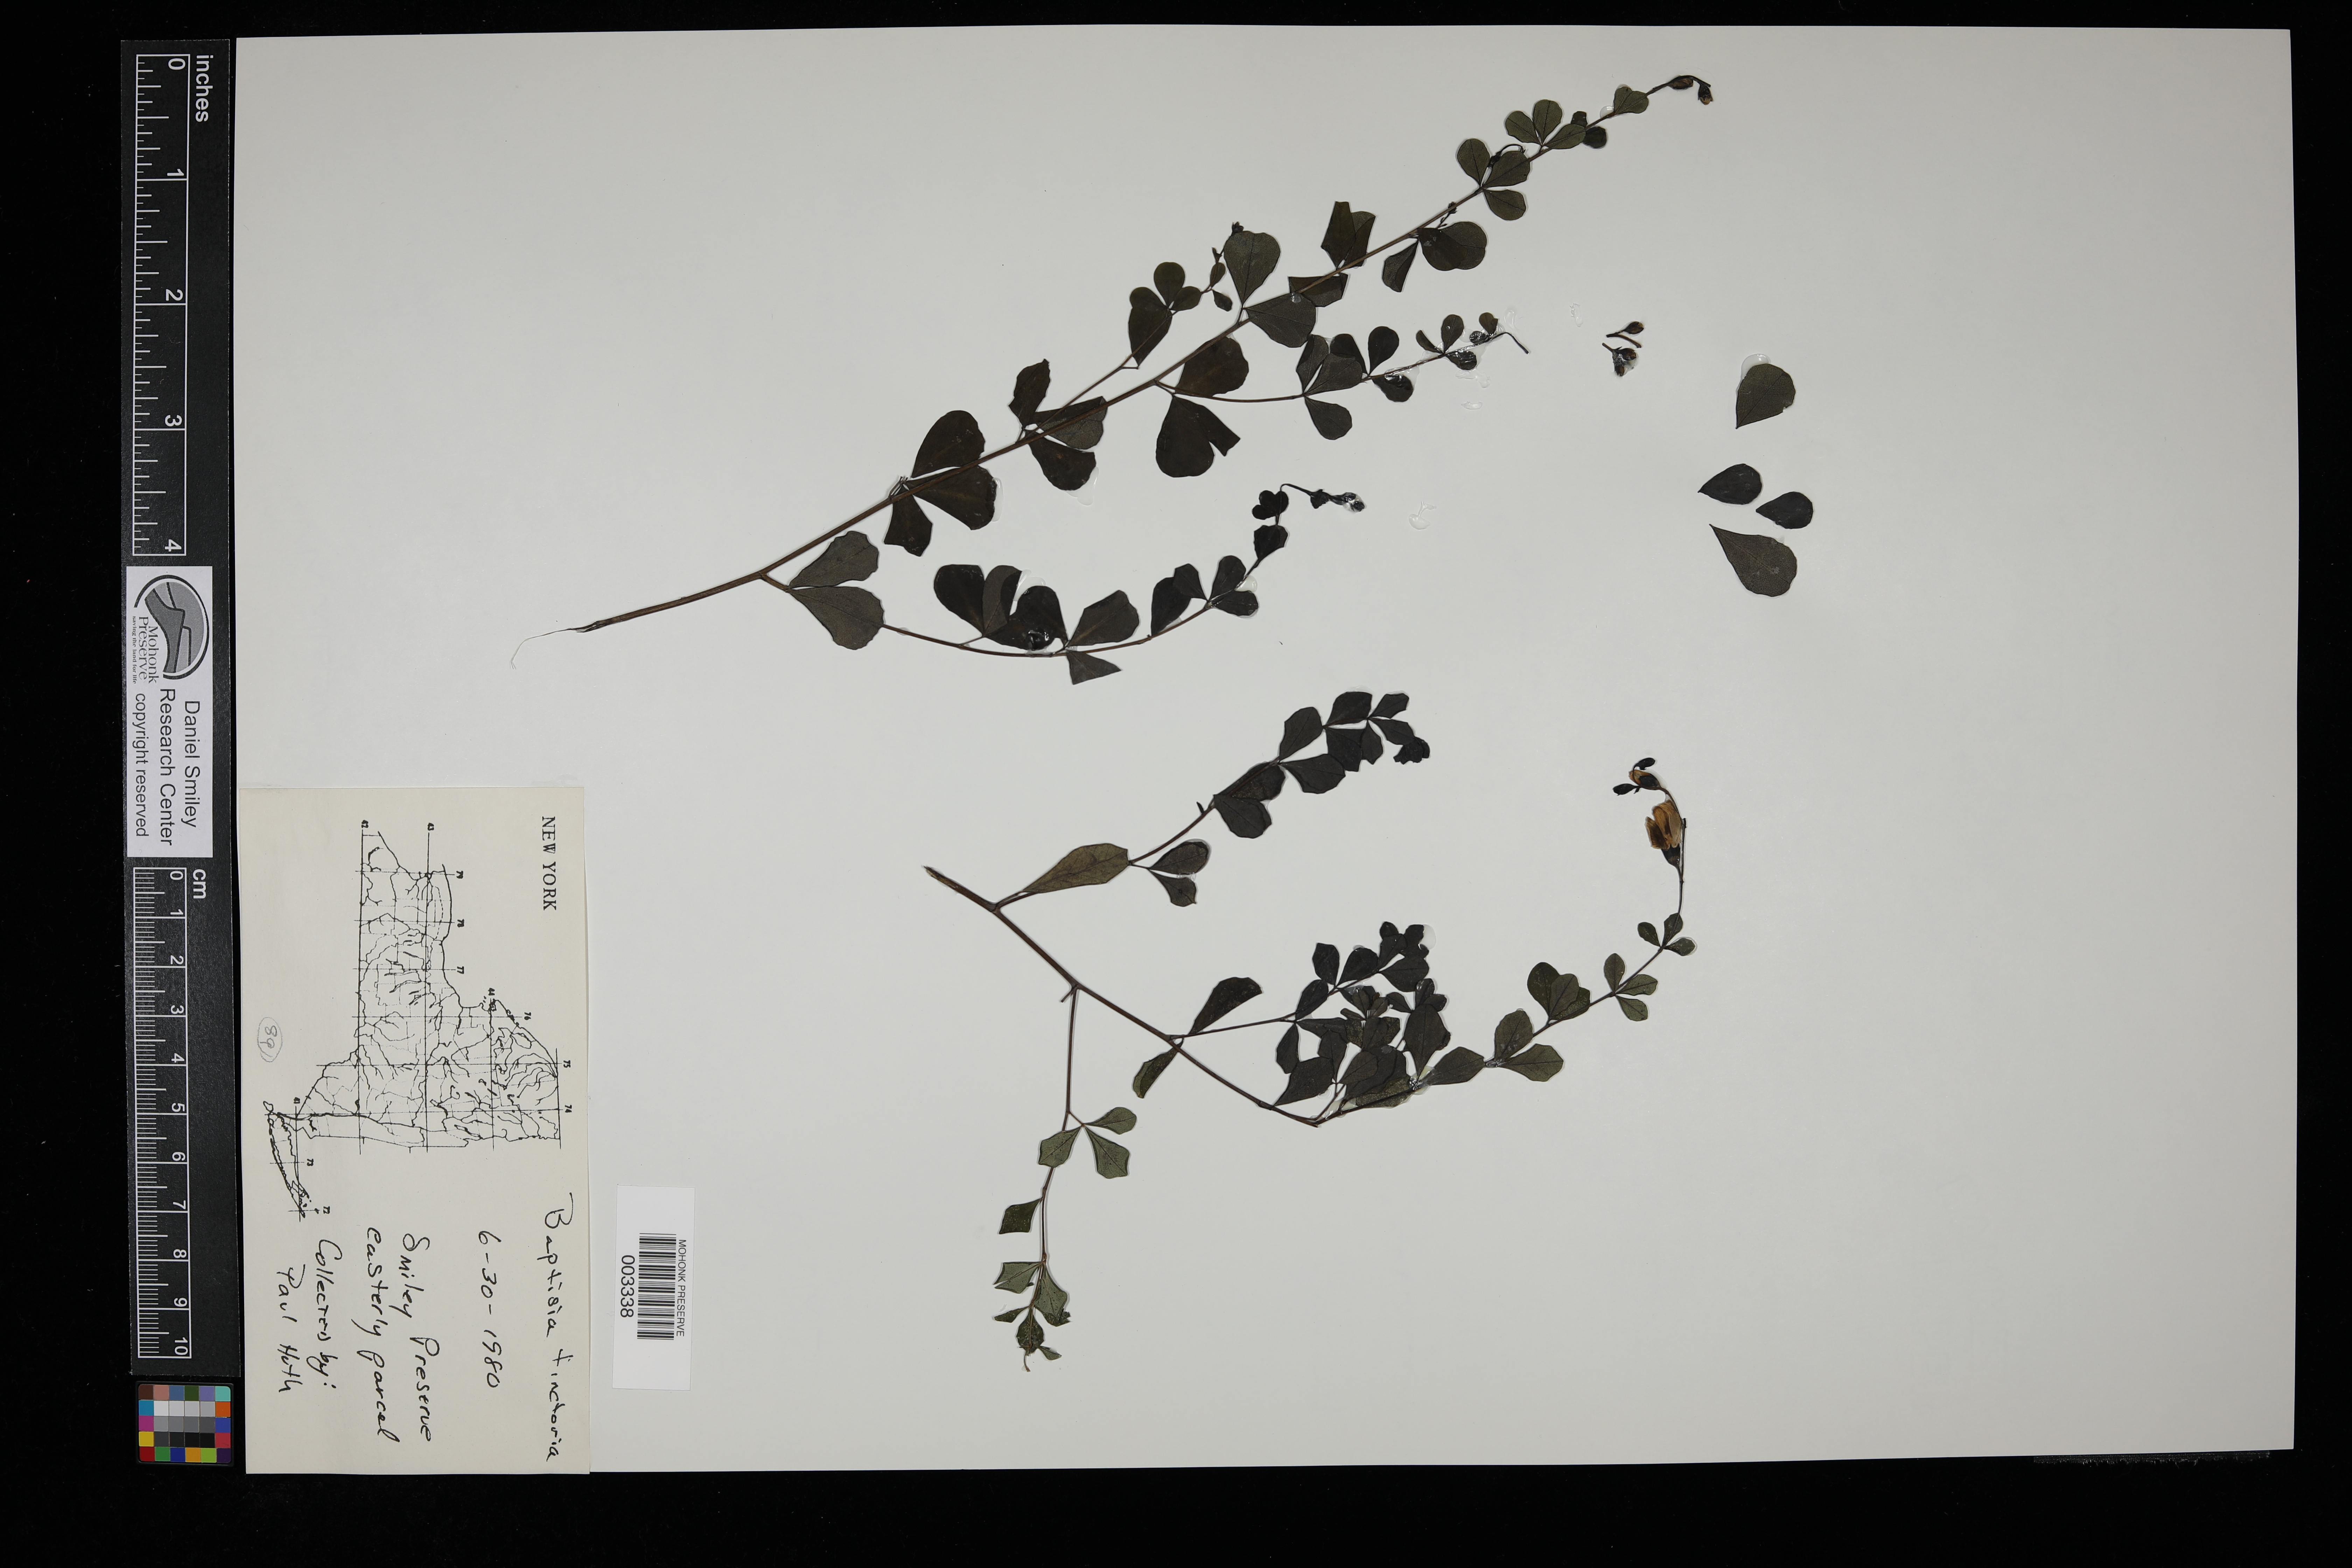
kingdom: Plantae
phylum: Tracheophyta
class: Magnoliopsida
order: Fabales
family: Fabaceae
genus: Baptisia
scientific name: Baptisia tinctoria
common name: Wild indigo
